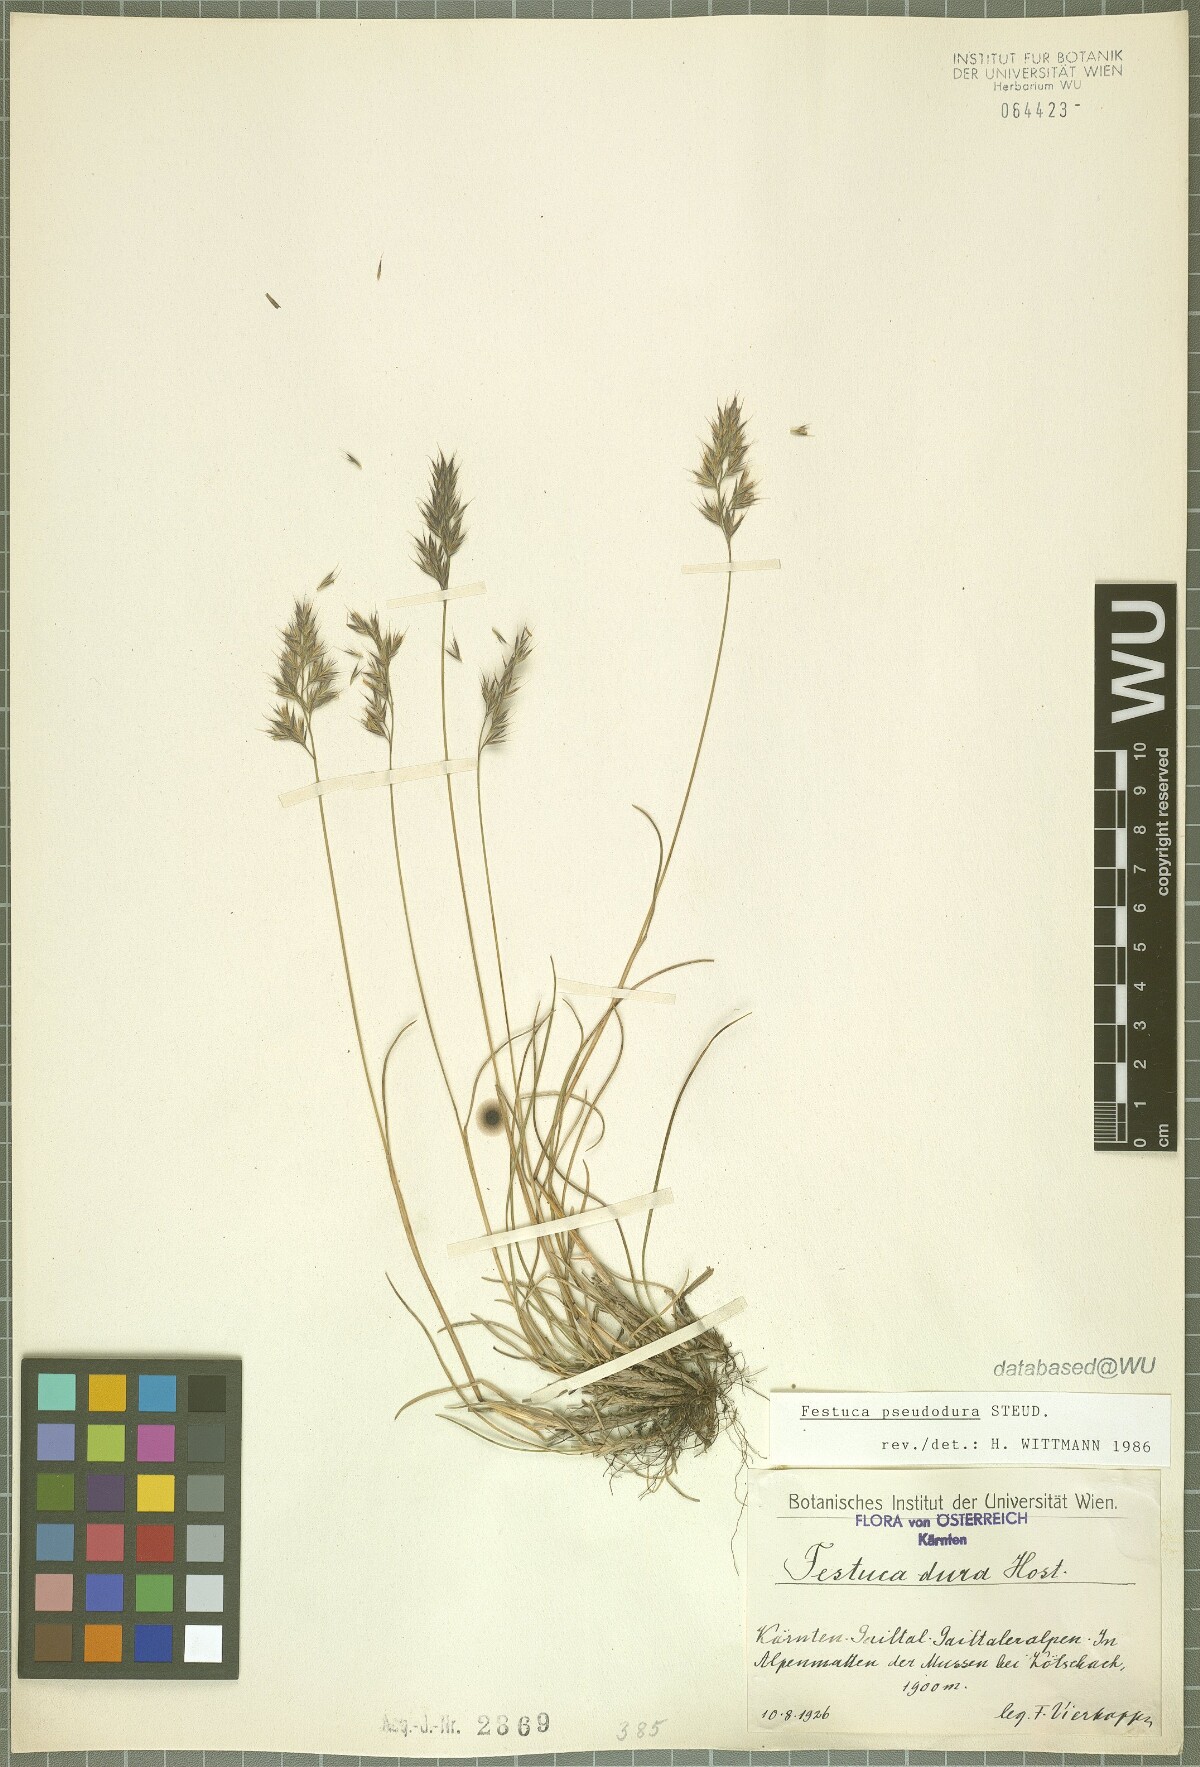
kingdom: Plantae
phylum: Tracheophyta
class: Liliopsida
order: Poales
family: Poaceae
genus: Festuca
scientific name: Festuca pseudodura
